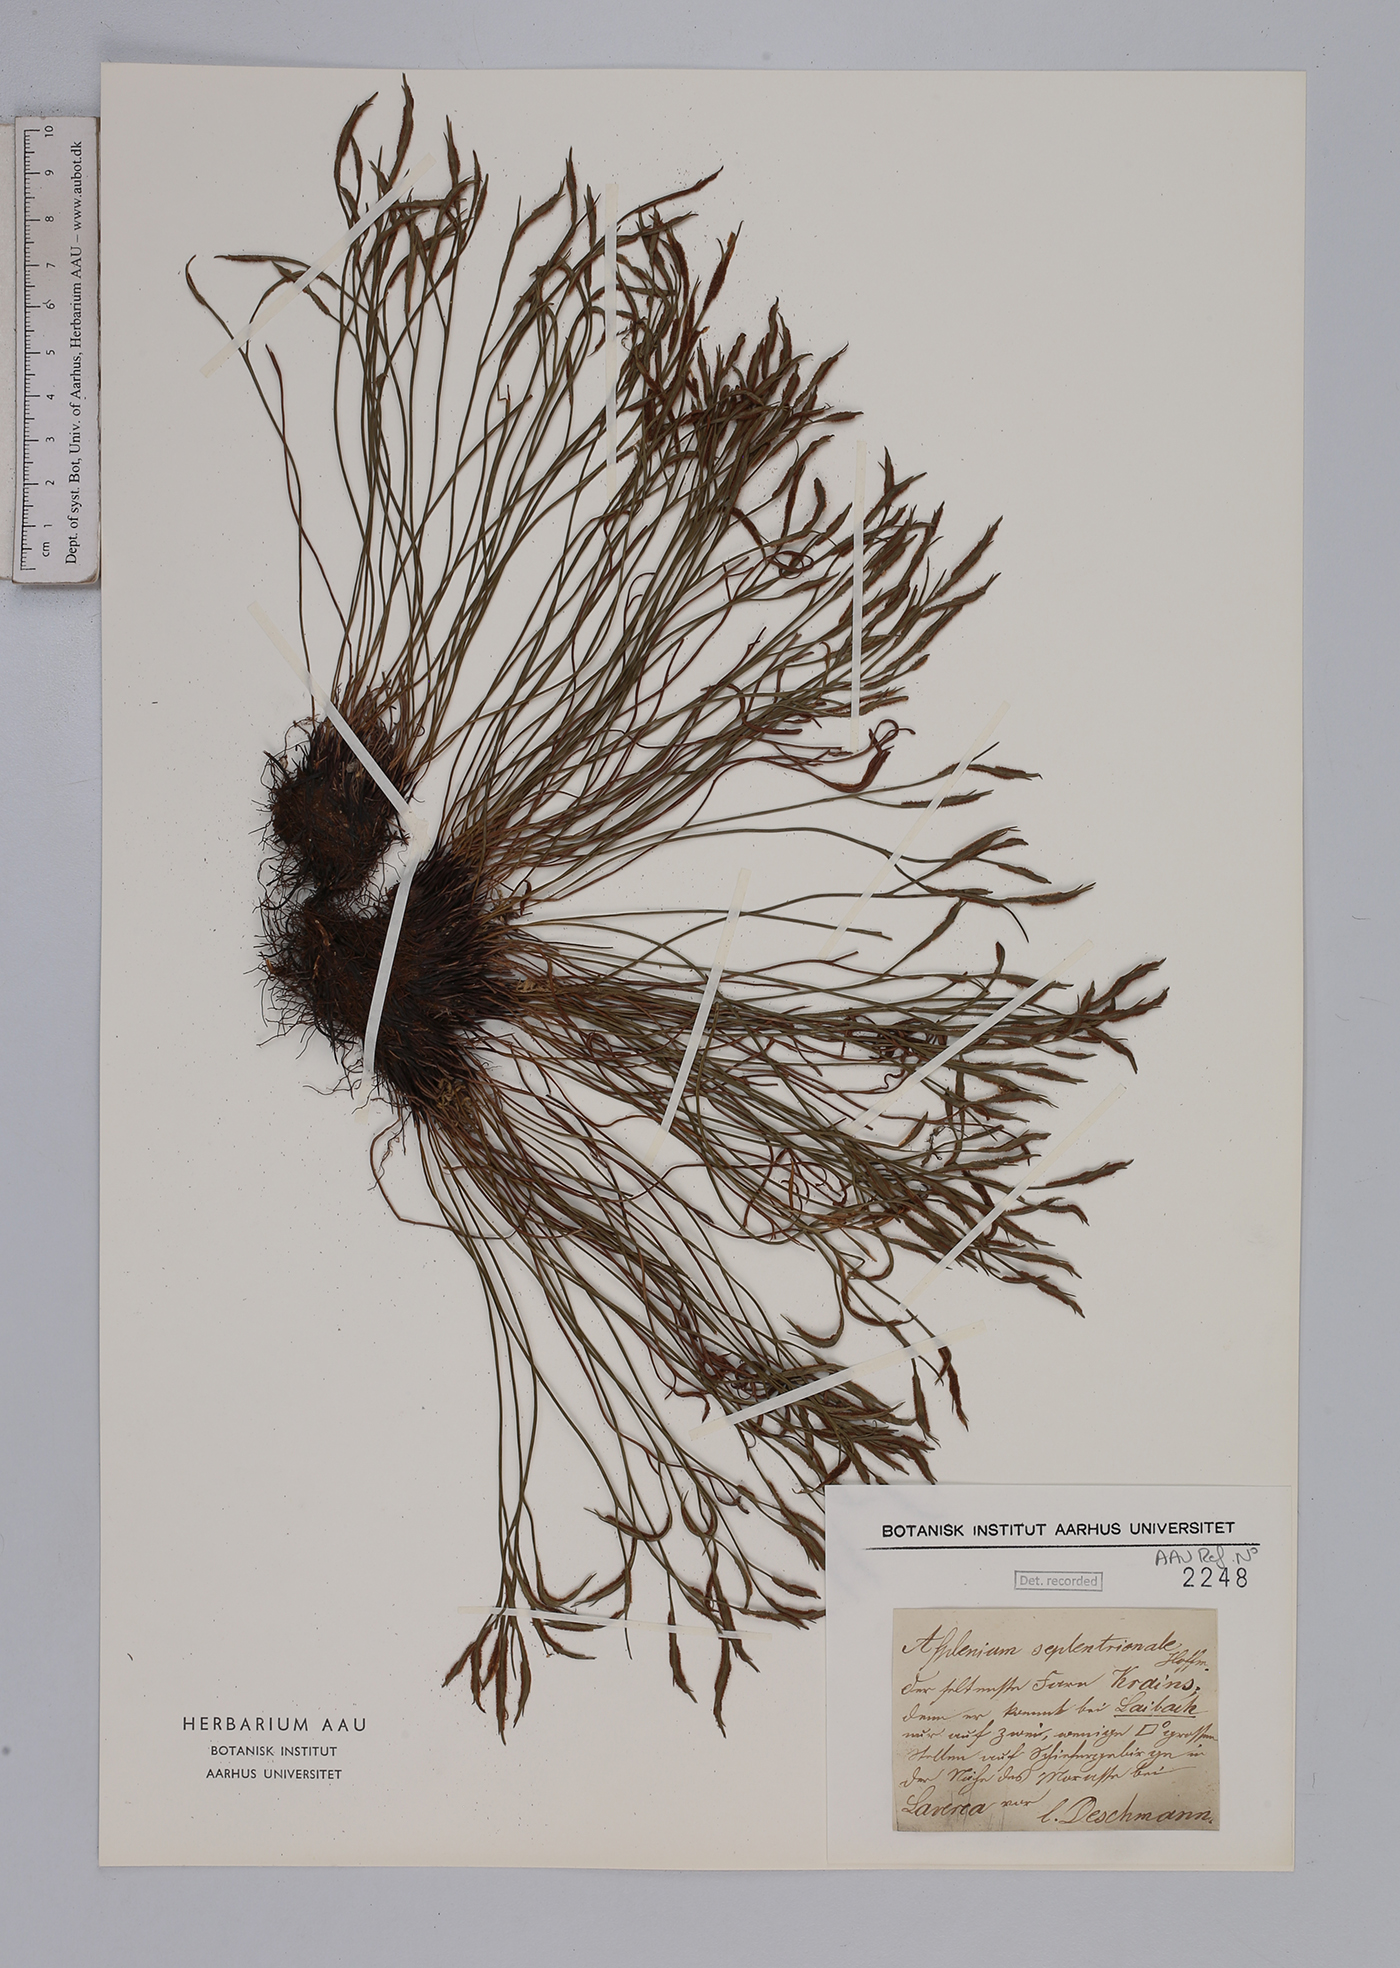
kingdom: Plantae
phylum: Tracheophyta
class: Polypodiopsida
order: Polypodiales
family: Aspleniaceae
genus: Asplenium
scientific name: Asplenium septentrionale
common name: Forked spleenwort
